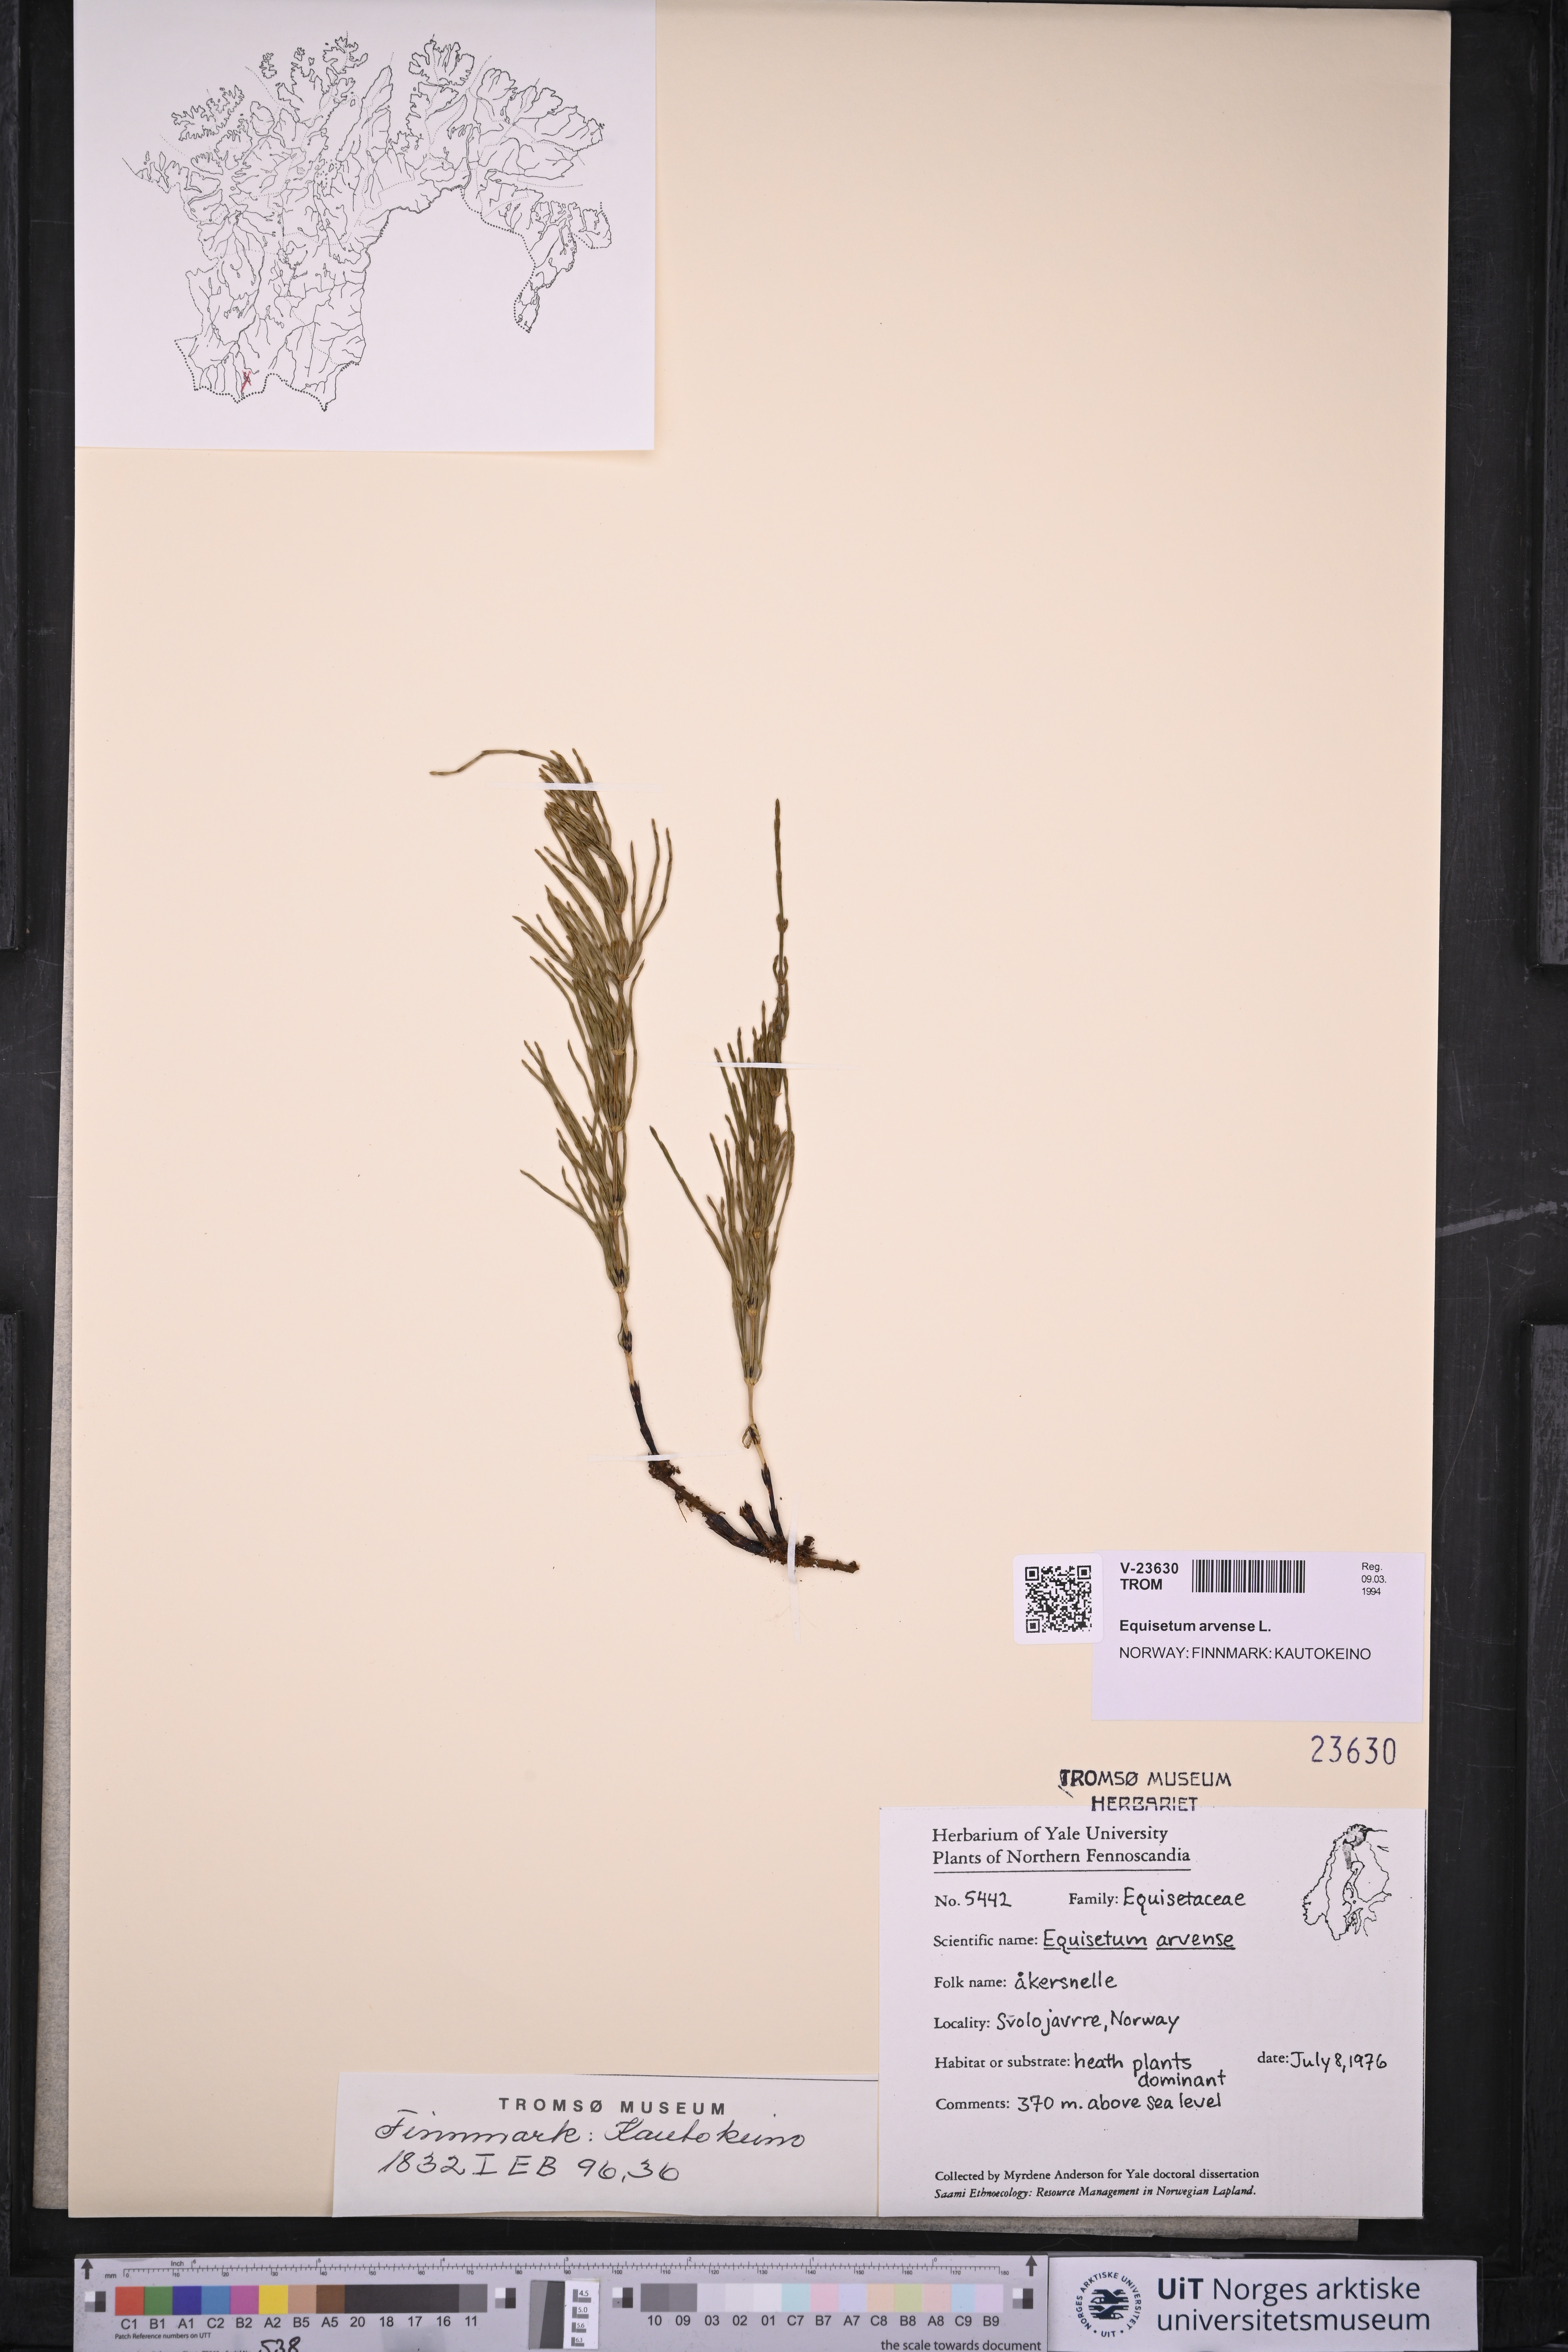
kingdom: Plantae
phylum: Tracheophyta
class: Polypodiopsida
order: Equisetales
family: Equisetaceae
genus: Equisetum
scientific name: Equisetum arvense
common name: Field horsetail
